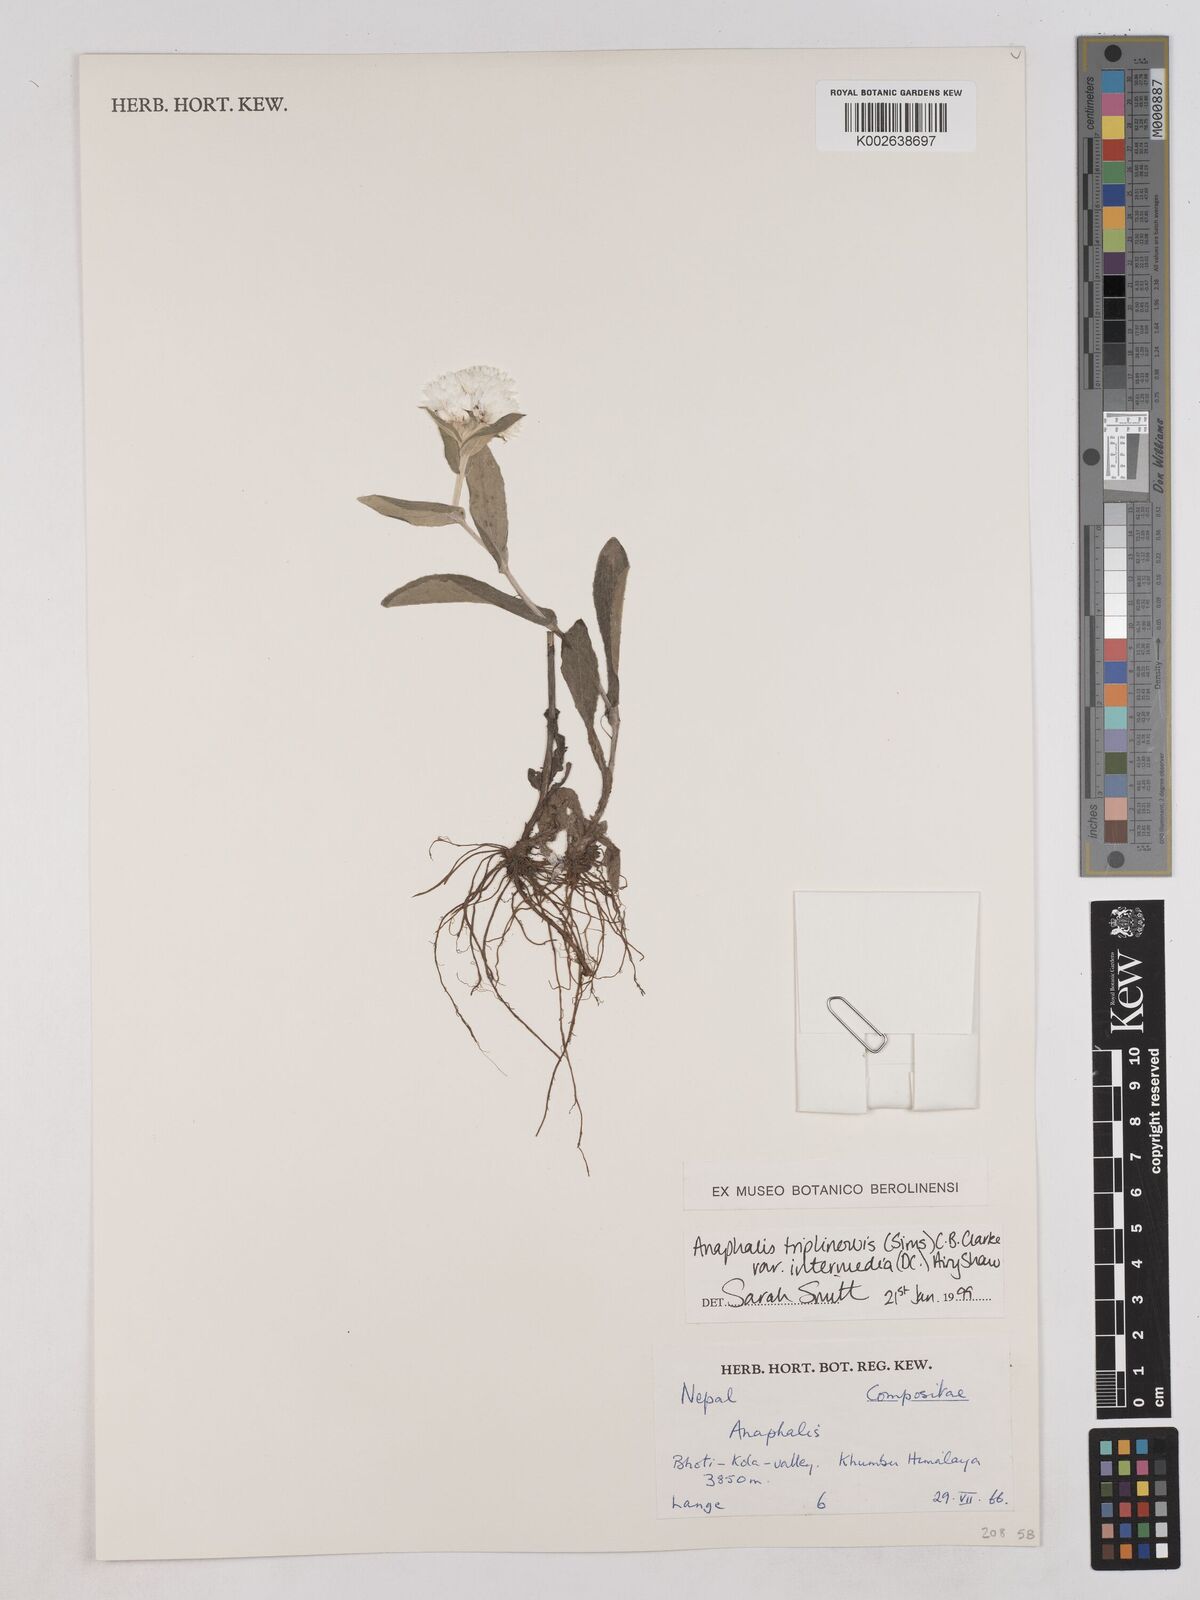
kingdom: Plantae
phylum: Tracheophyta
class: Magnoliopsida
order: Asterales
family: Asteraceae
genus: Anaphalioides
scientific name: Anaphalioides trinervis
